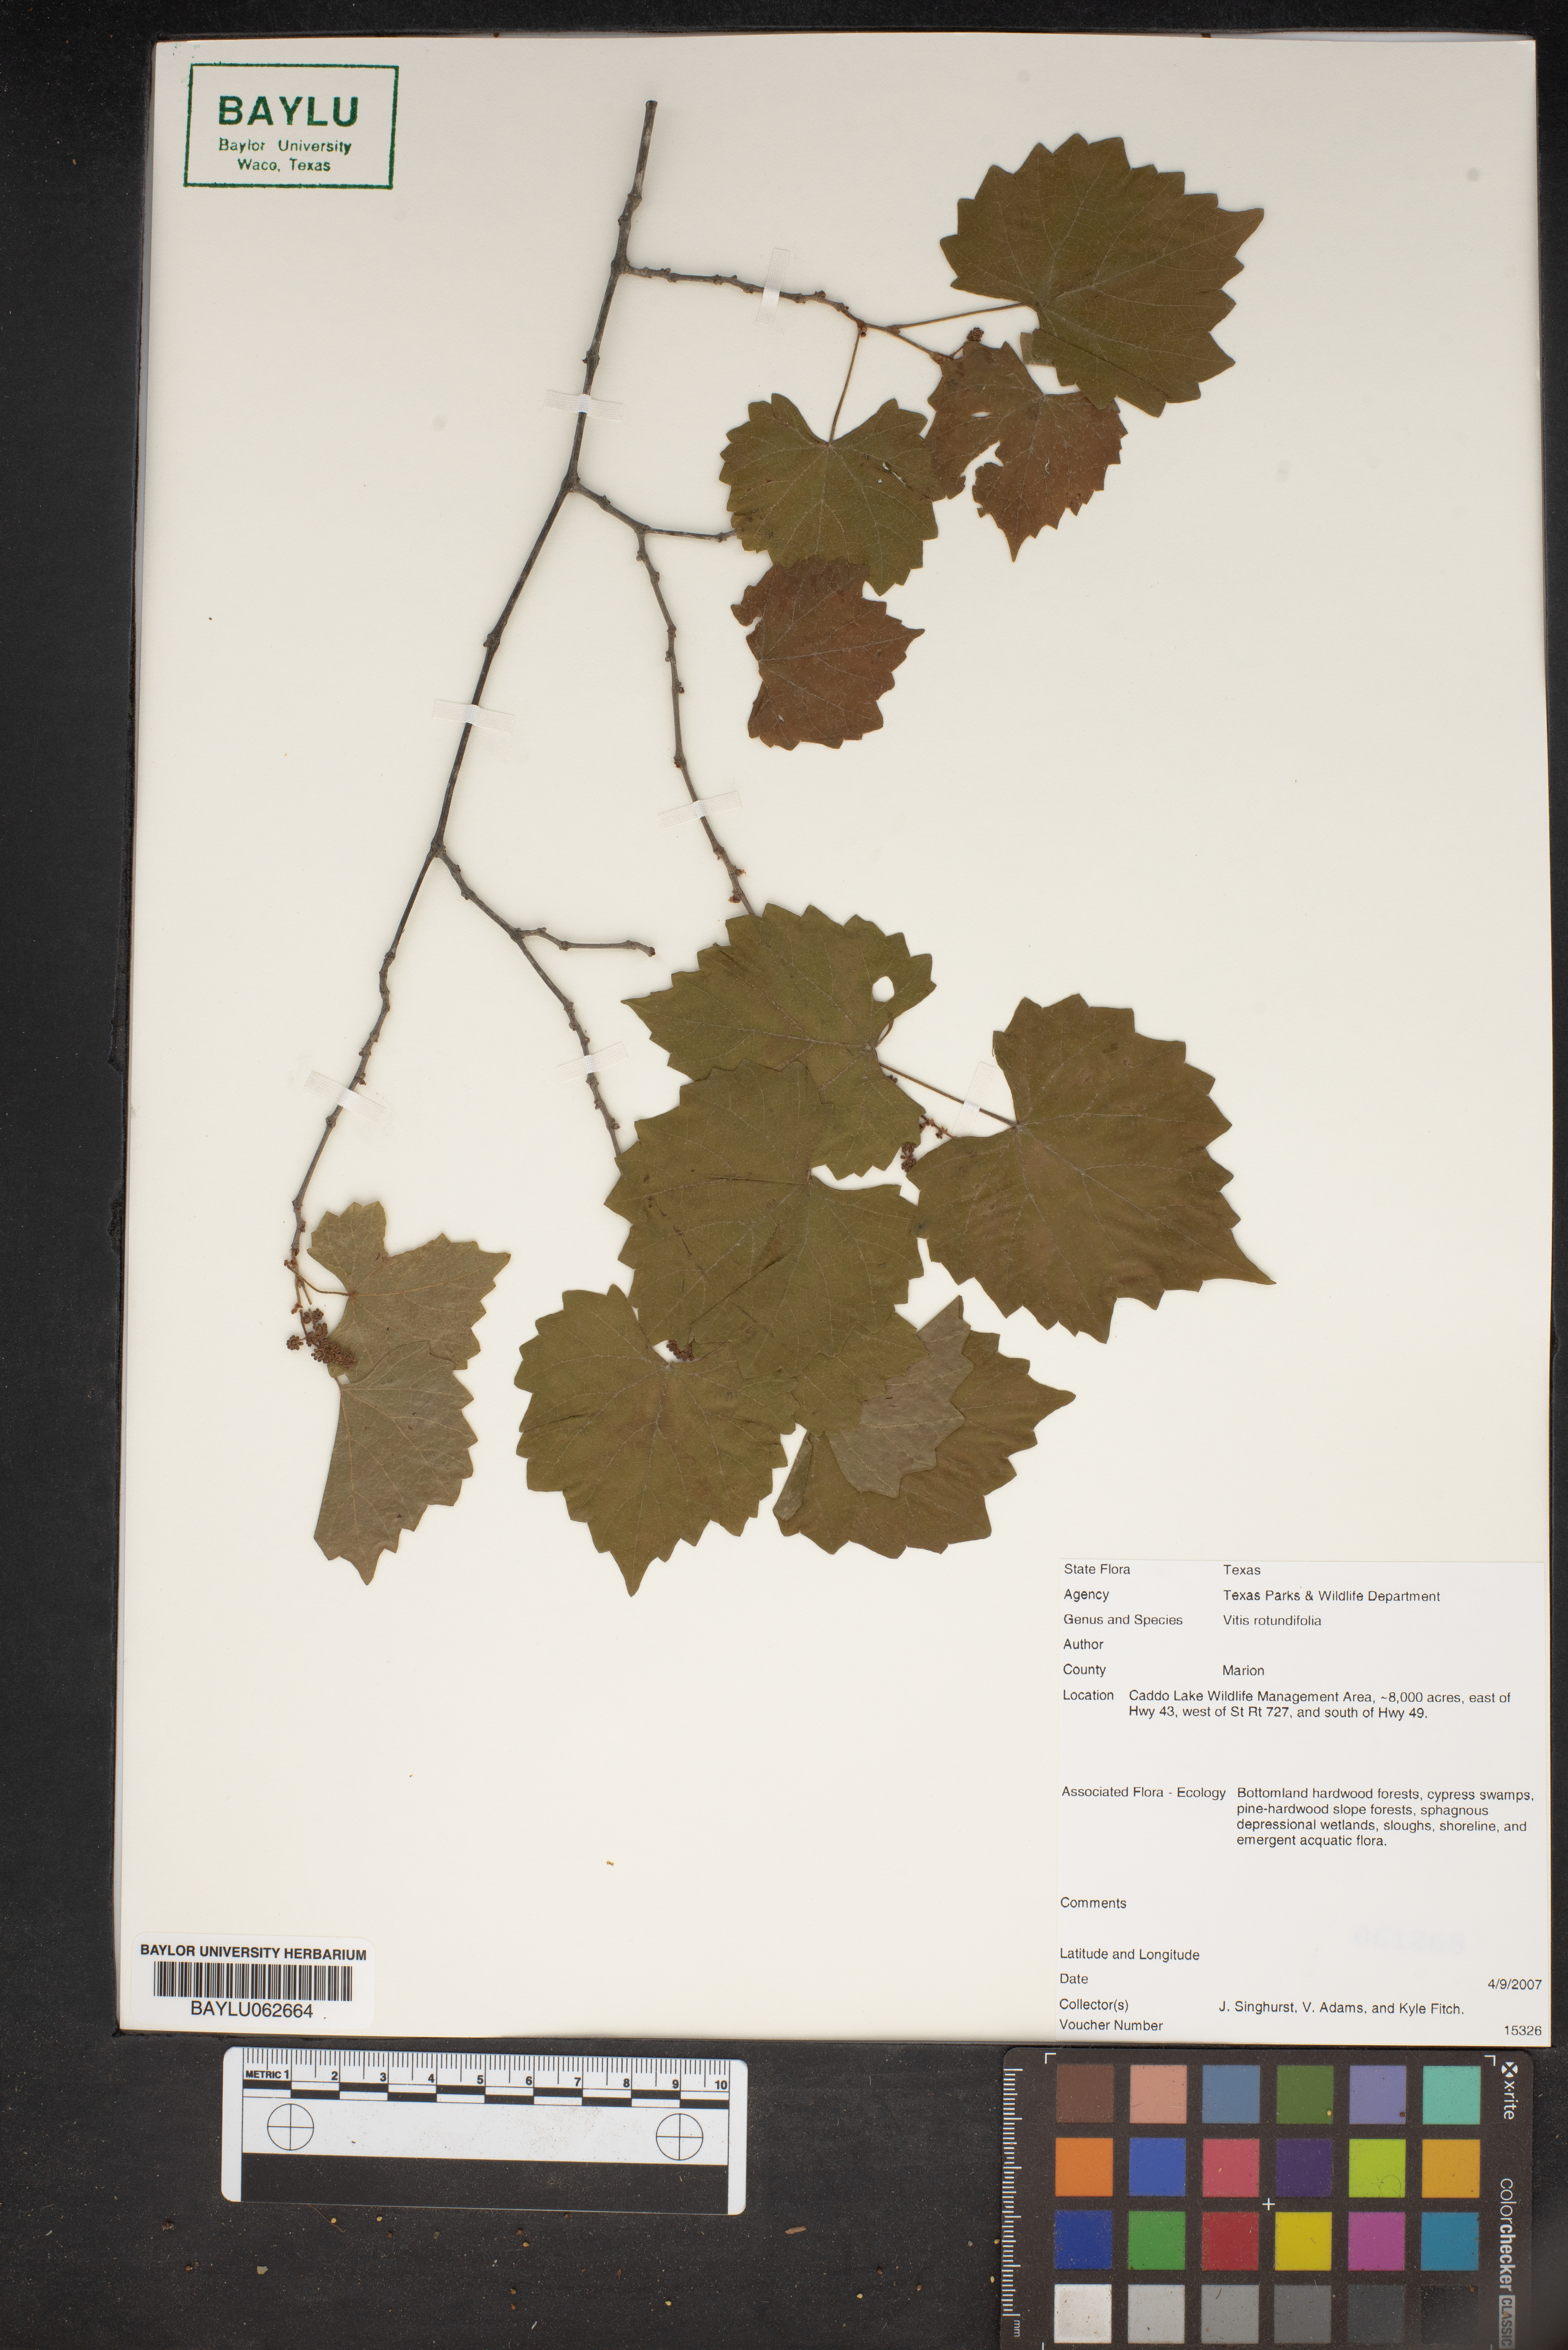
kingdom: Plantae
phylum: Tracheophyta
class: Magnoliopsida
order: Vitales
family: Vitaceae
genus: Vitis
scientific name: Vitis rotundifolia
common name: Muscadine grape
